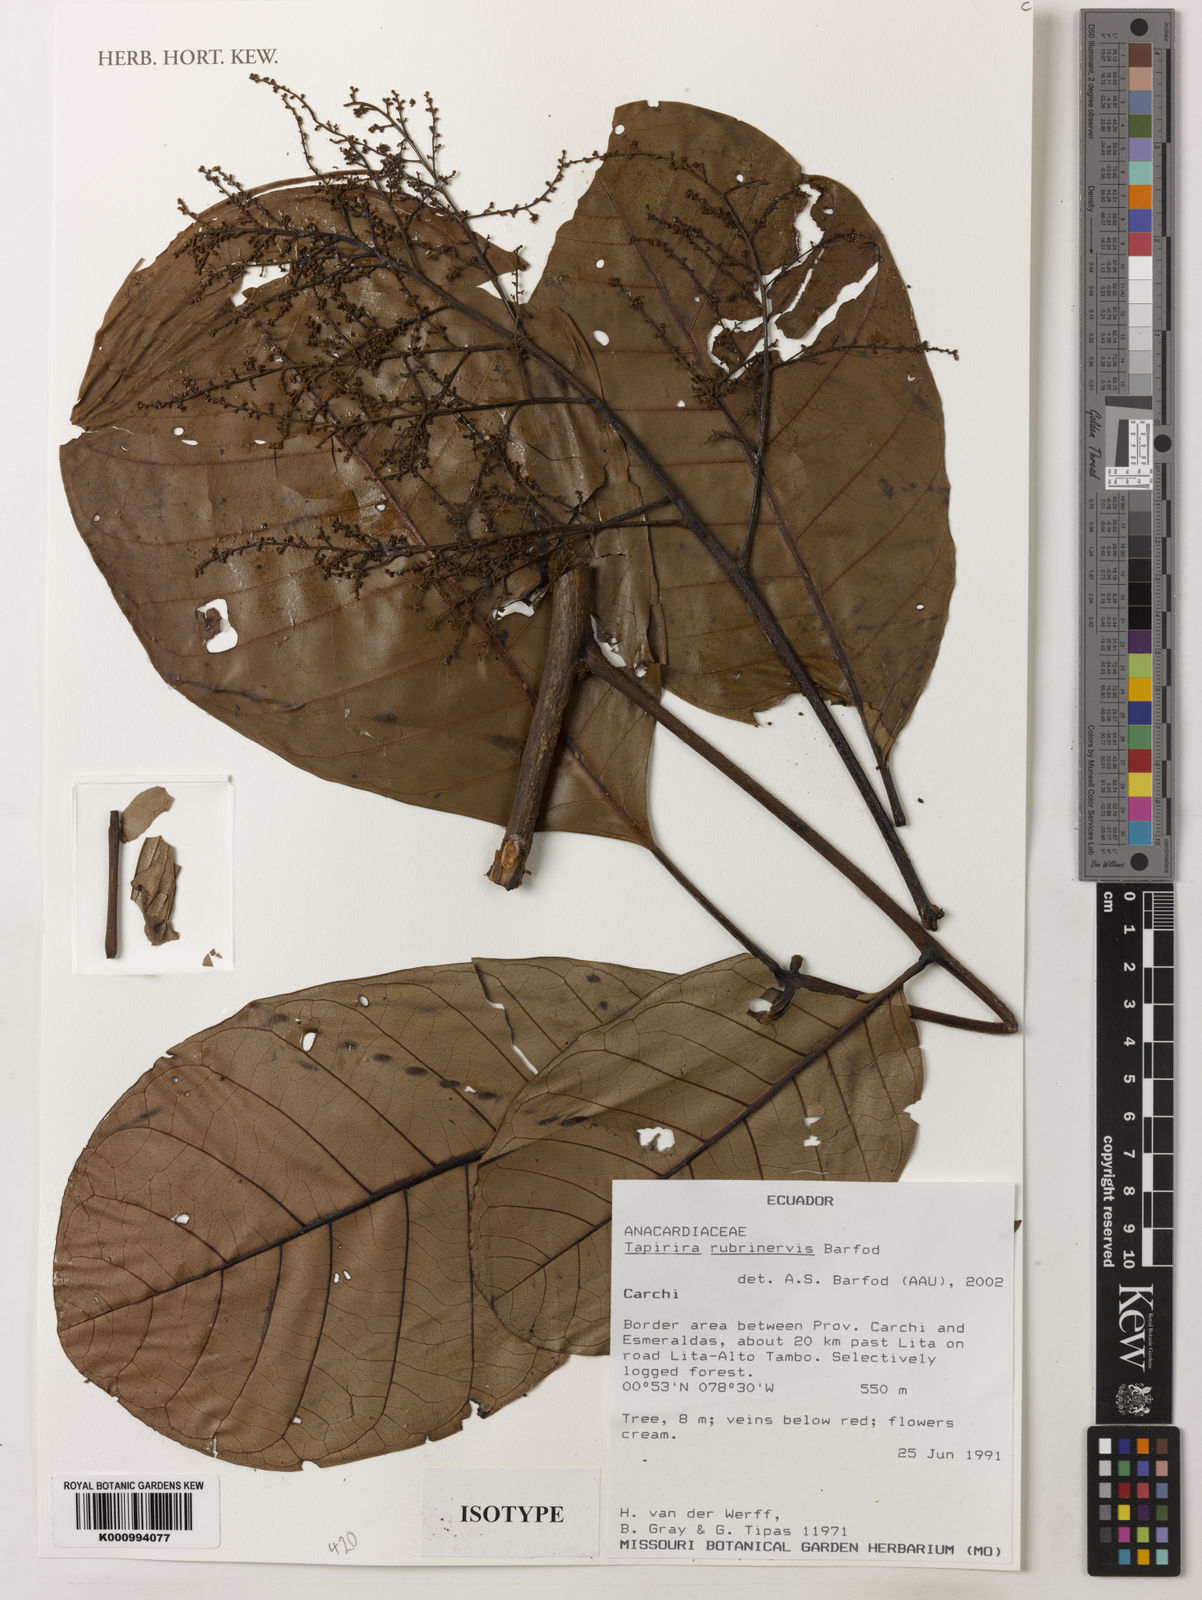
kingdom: Plantae
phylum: Tracheophyta
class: Magnoliopsida
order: Sapindales
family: Anacardiaceae
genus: Tapirira
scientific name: Tapirira rubrinervis
